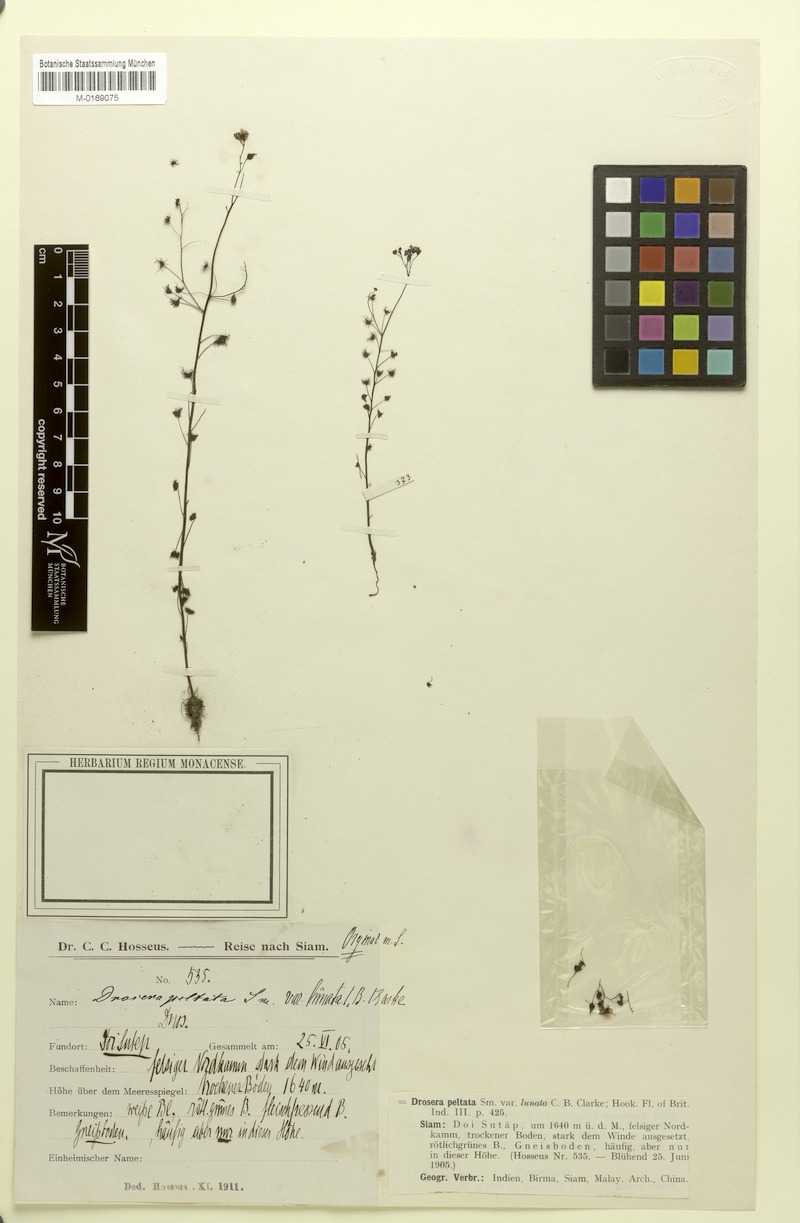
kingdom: Plantae
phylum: Tracheophyta
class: Magnoliopsida
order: Caryophyllales
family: Droseraceae
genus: Drosera
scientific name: Drosera peltata
